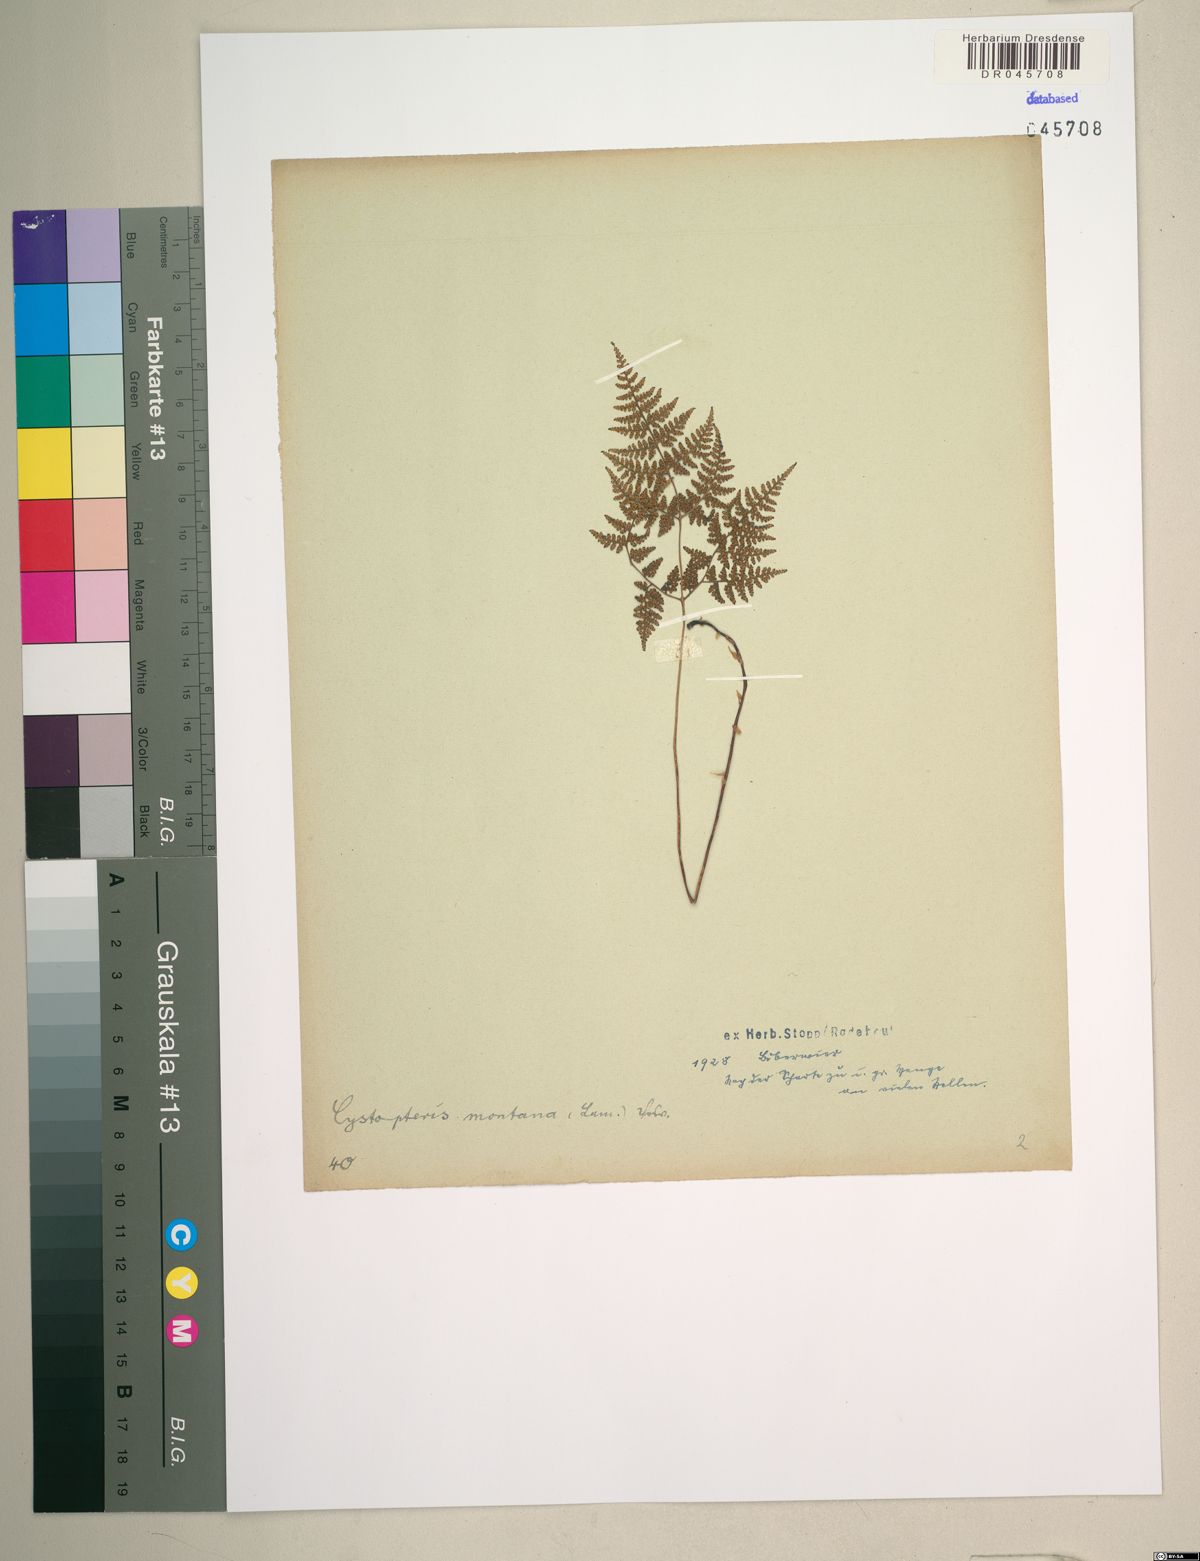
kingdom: Plantae
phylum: Tracheophyta
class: Polypodiopsida
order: Polypodiales
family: Cystopteridaceae
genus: Cystopteris
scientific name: Cystopteris montana
